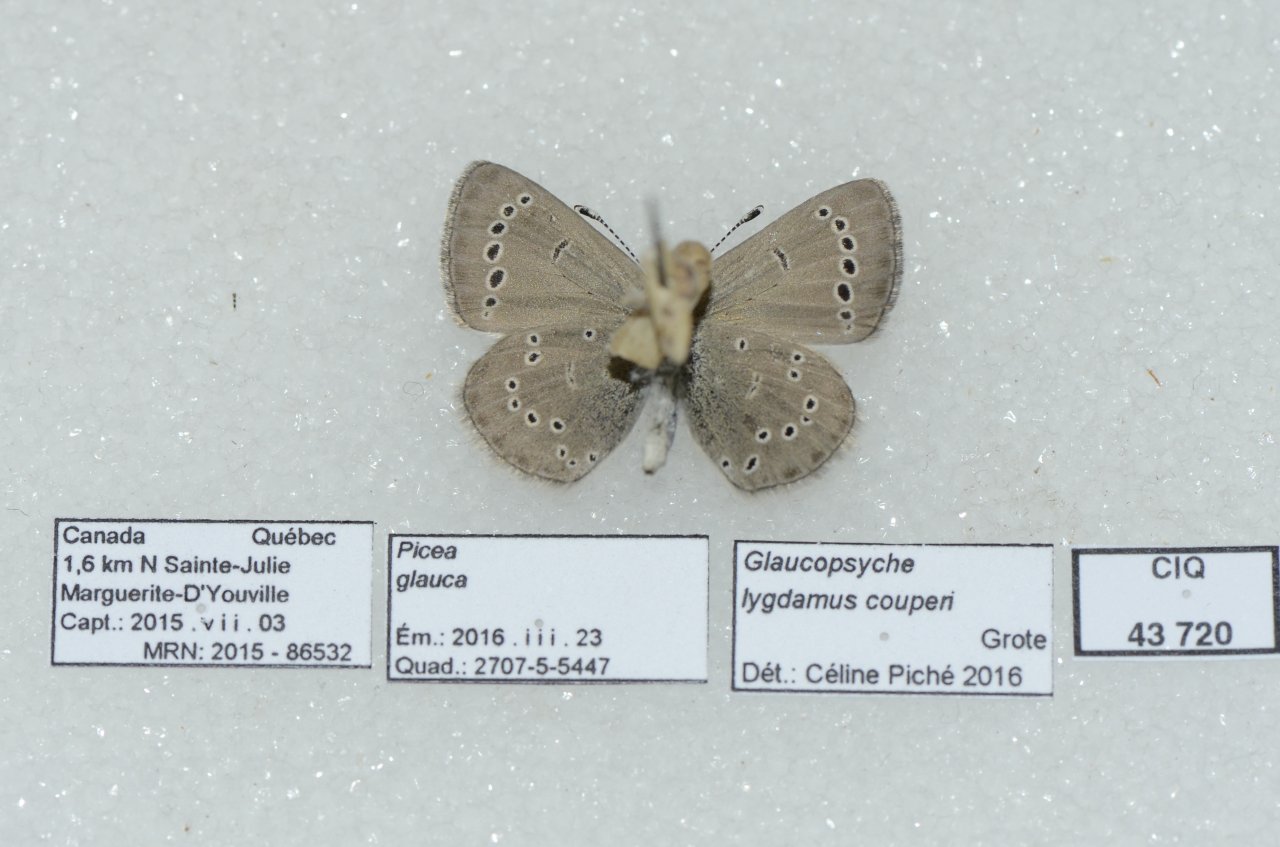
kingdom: Animalia
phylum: Arthropoda
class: Insecta
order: Lepidoptera
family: Lycaenidae
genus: Glaucopsyche
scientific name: Glaucopsyche lygdamus
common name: Silvery Blue
